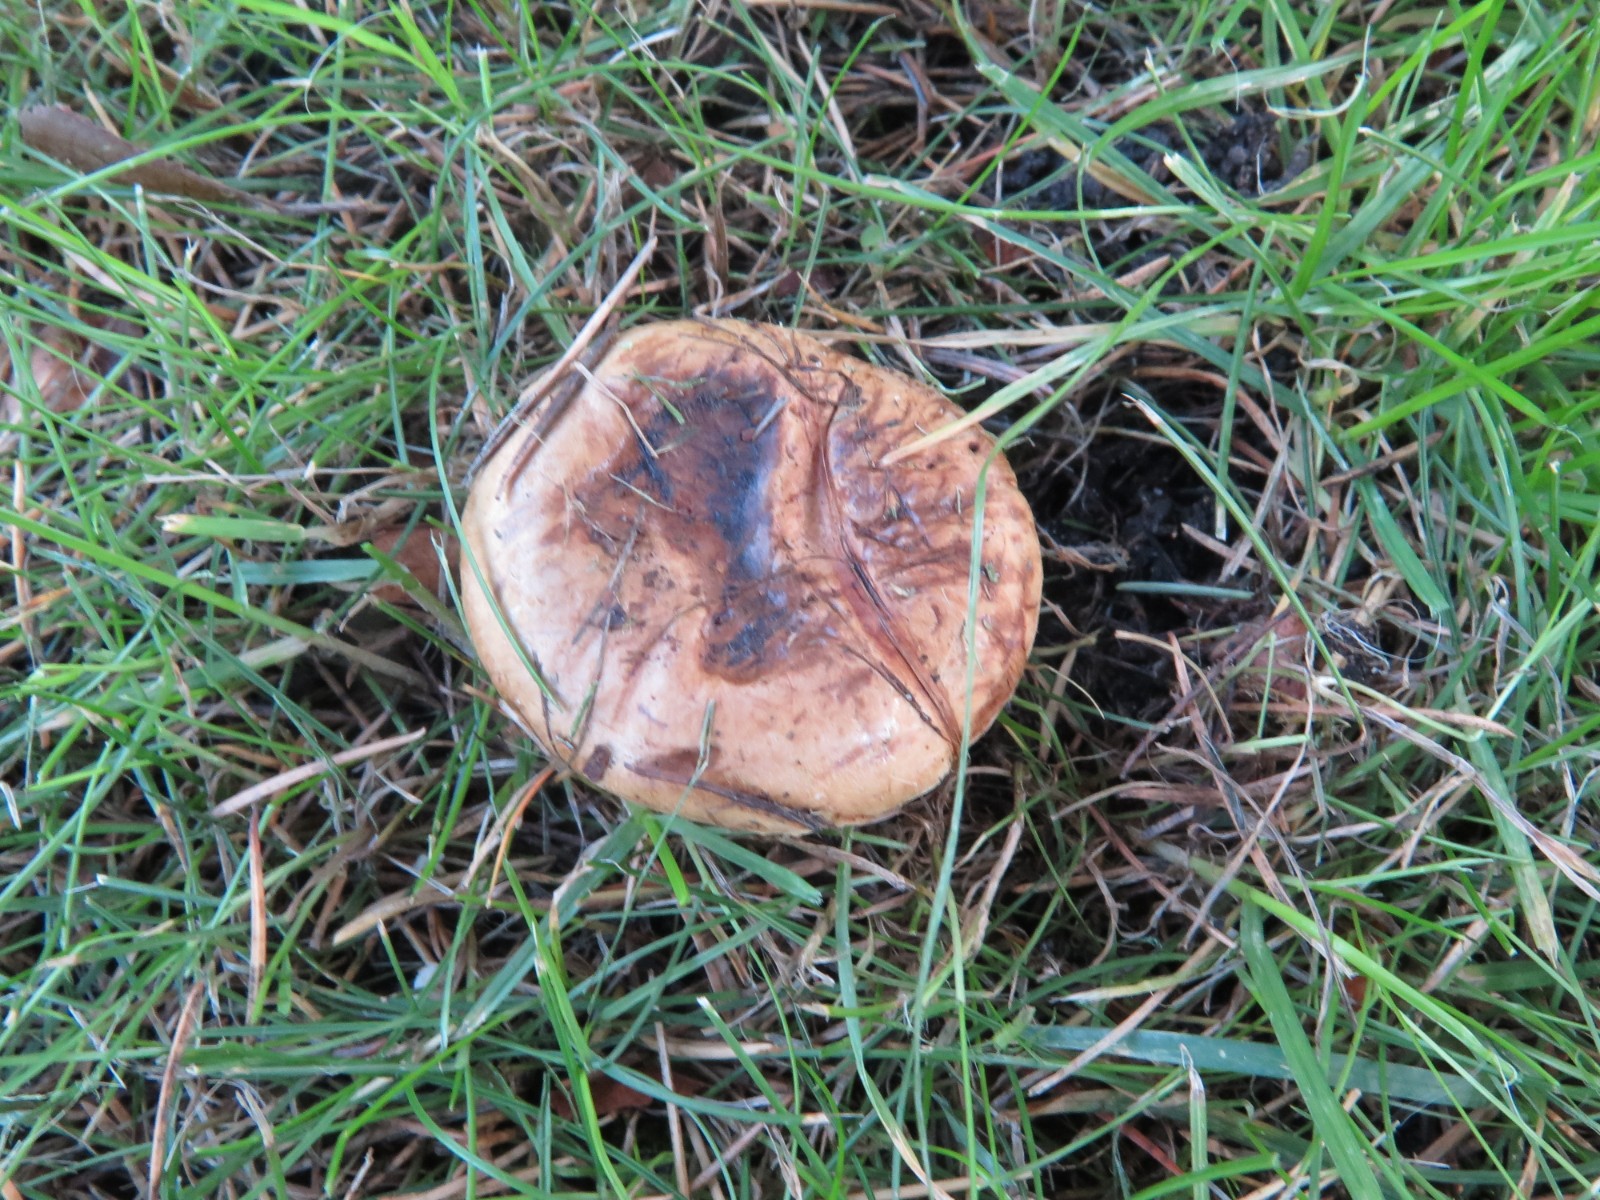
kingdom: Fungi
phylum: Basidiomycota
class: Agaricomycetes
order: Boletales
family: Paxillaceae
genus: Paxillus
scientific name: Paxillus involutus
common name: almindelig netbladhat
